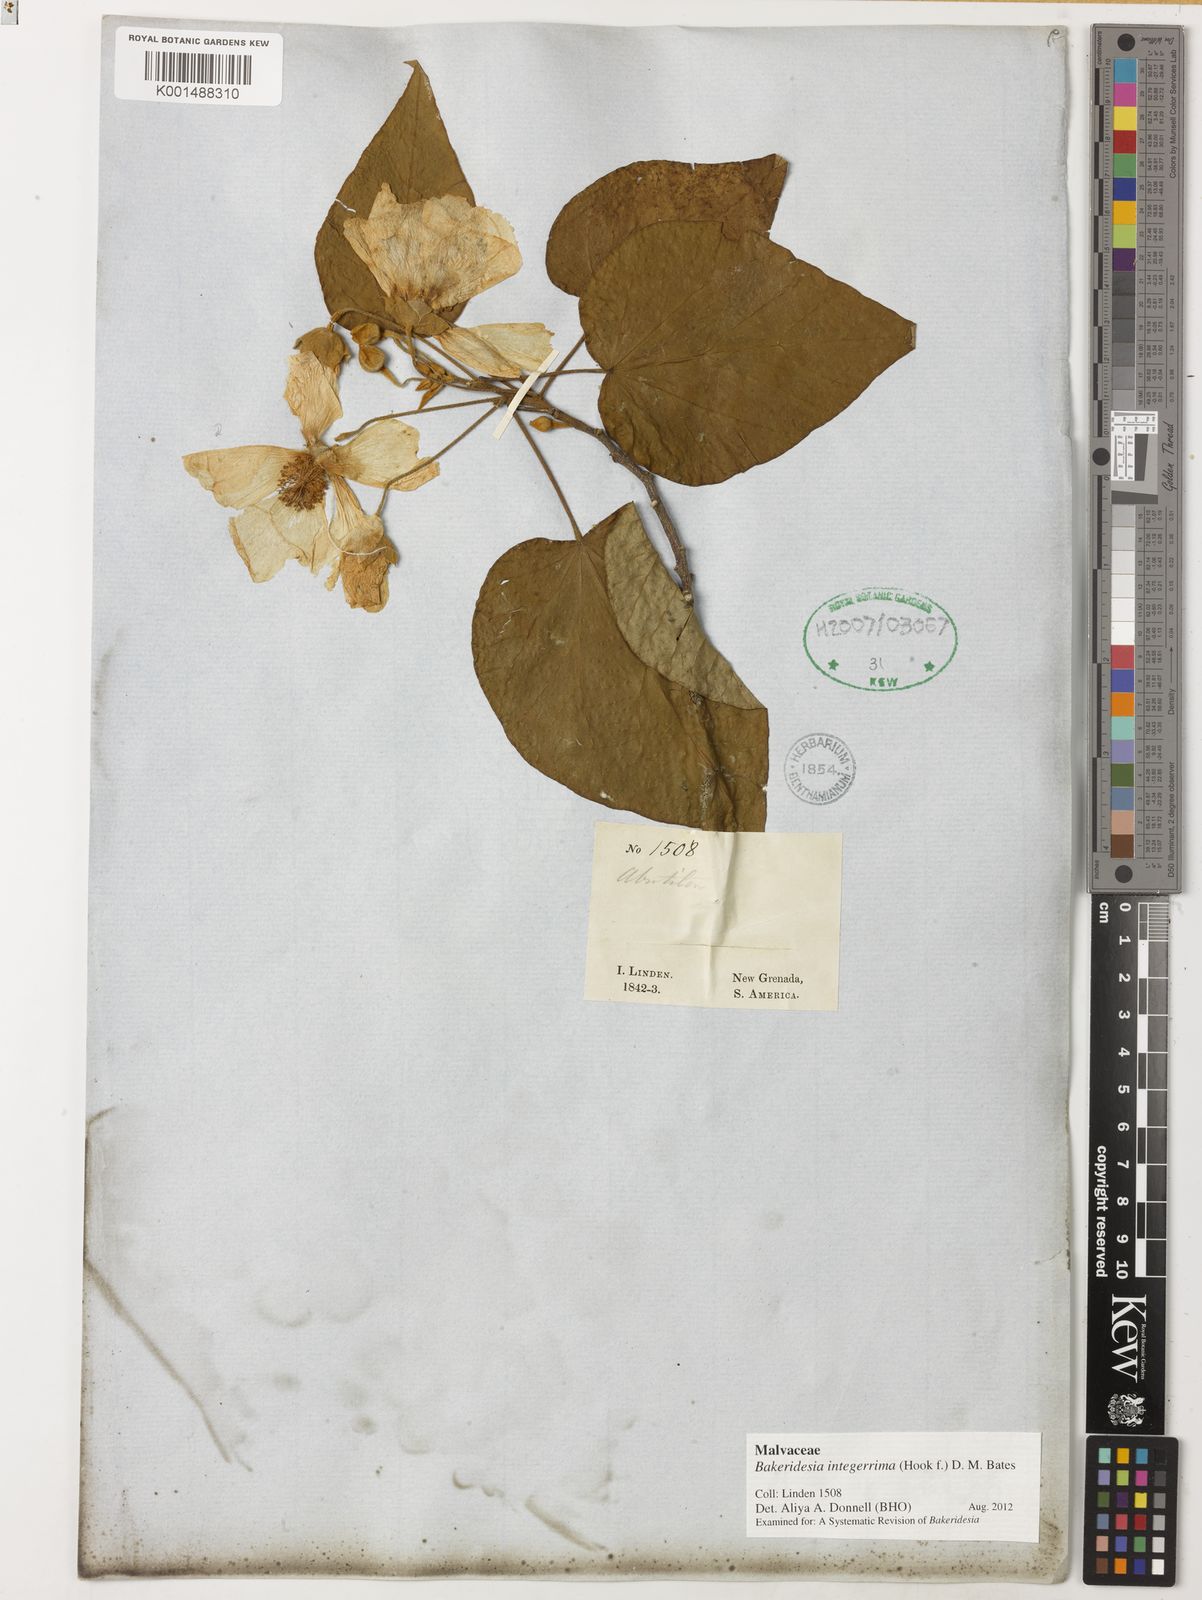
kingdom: Plantae
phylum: Tracheophyta
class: Magnoliopsida
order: Malvales
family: Malvaceae
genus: Bakeridesia
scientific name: Bakeridesia integerrima
